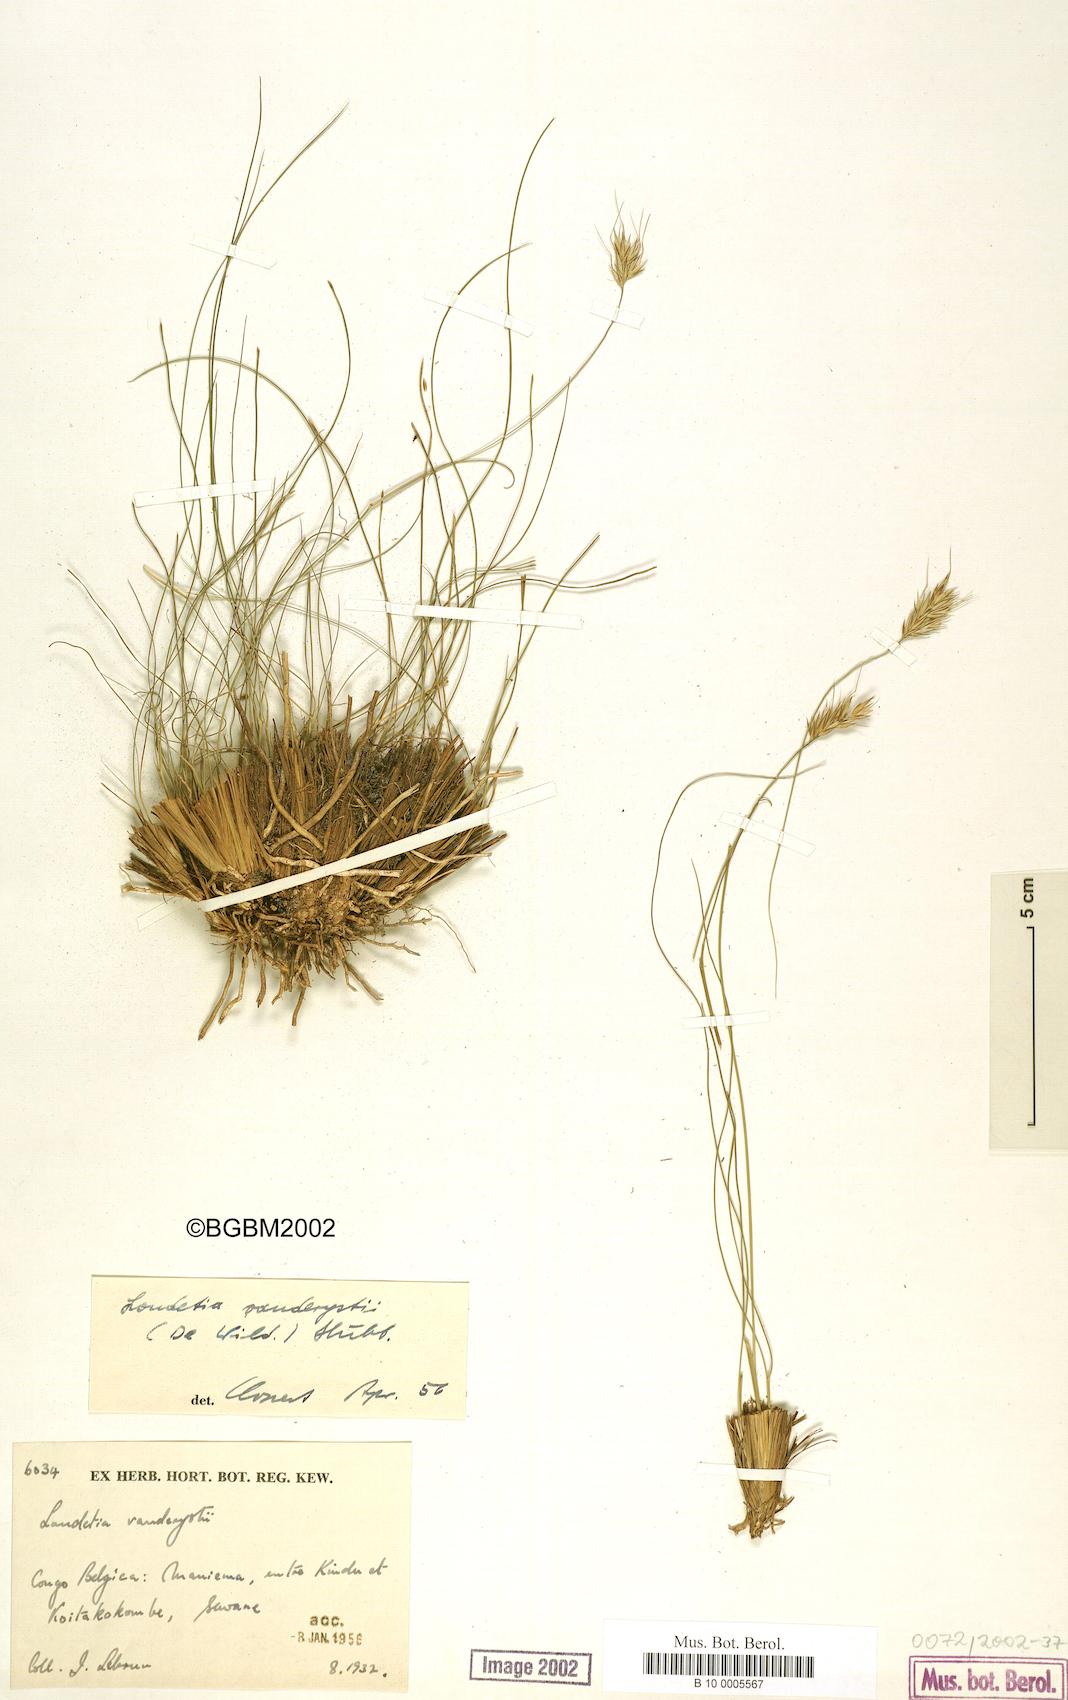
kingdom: Plantae
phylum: Tracheophyta
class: Liliopsida
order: Poales
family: Poaceae
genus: Loudetia
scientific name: Loudetia vanderystii
